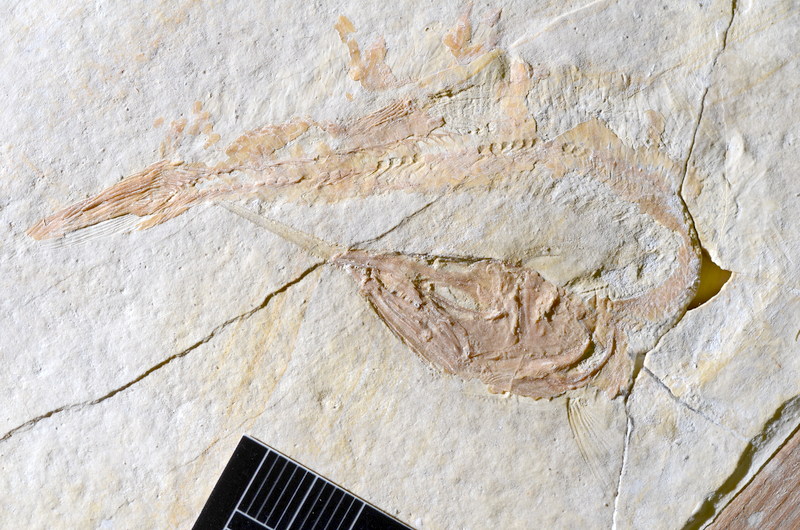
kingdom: Animalia
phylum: Chordata
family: Aspidorhynchidae
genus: Aspidorhynchus
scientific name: Aspidorhynchus acutirostris
